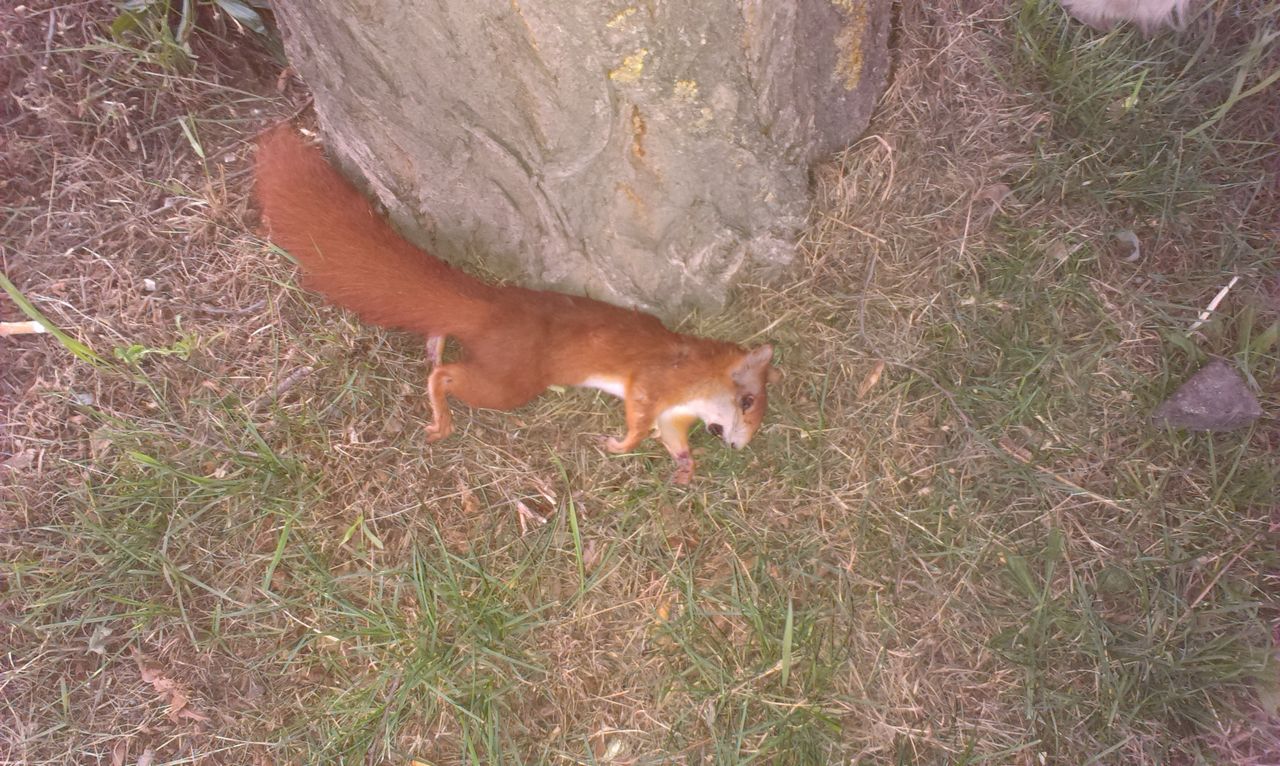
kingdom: Animalia
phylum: Chordata
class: Mammalia
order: Rodentia
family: Sciuridae
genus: Sciurus
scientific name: Sciurus vulgaris
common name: Eurasian red squirrel
